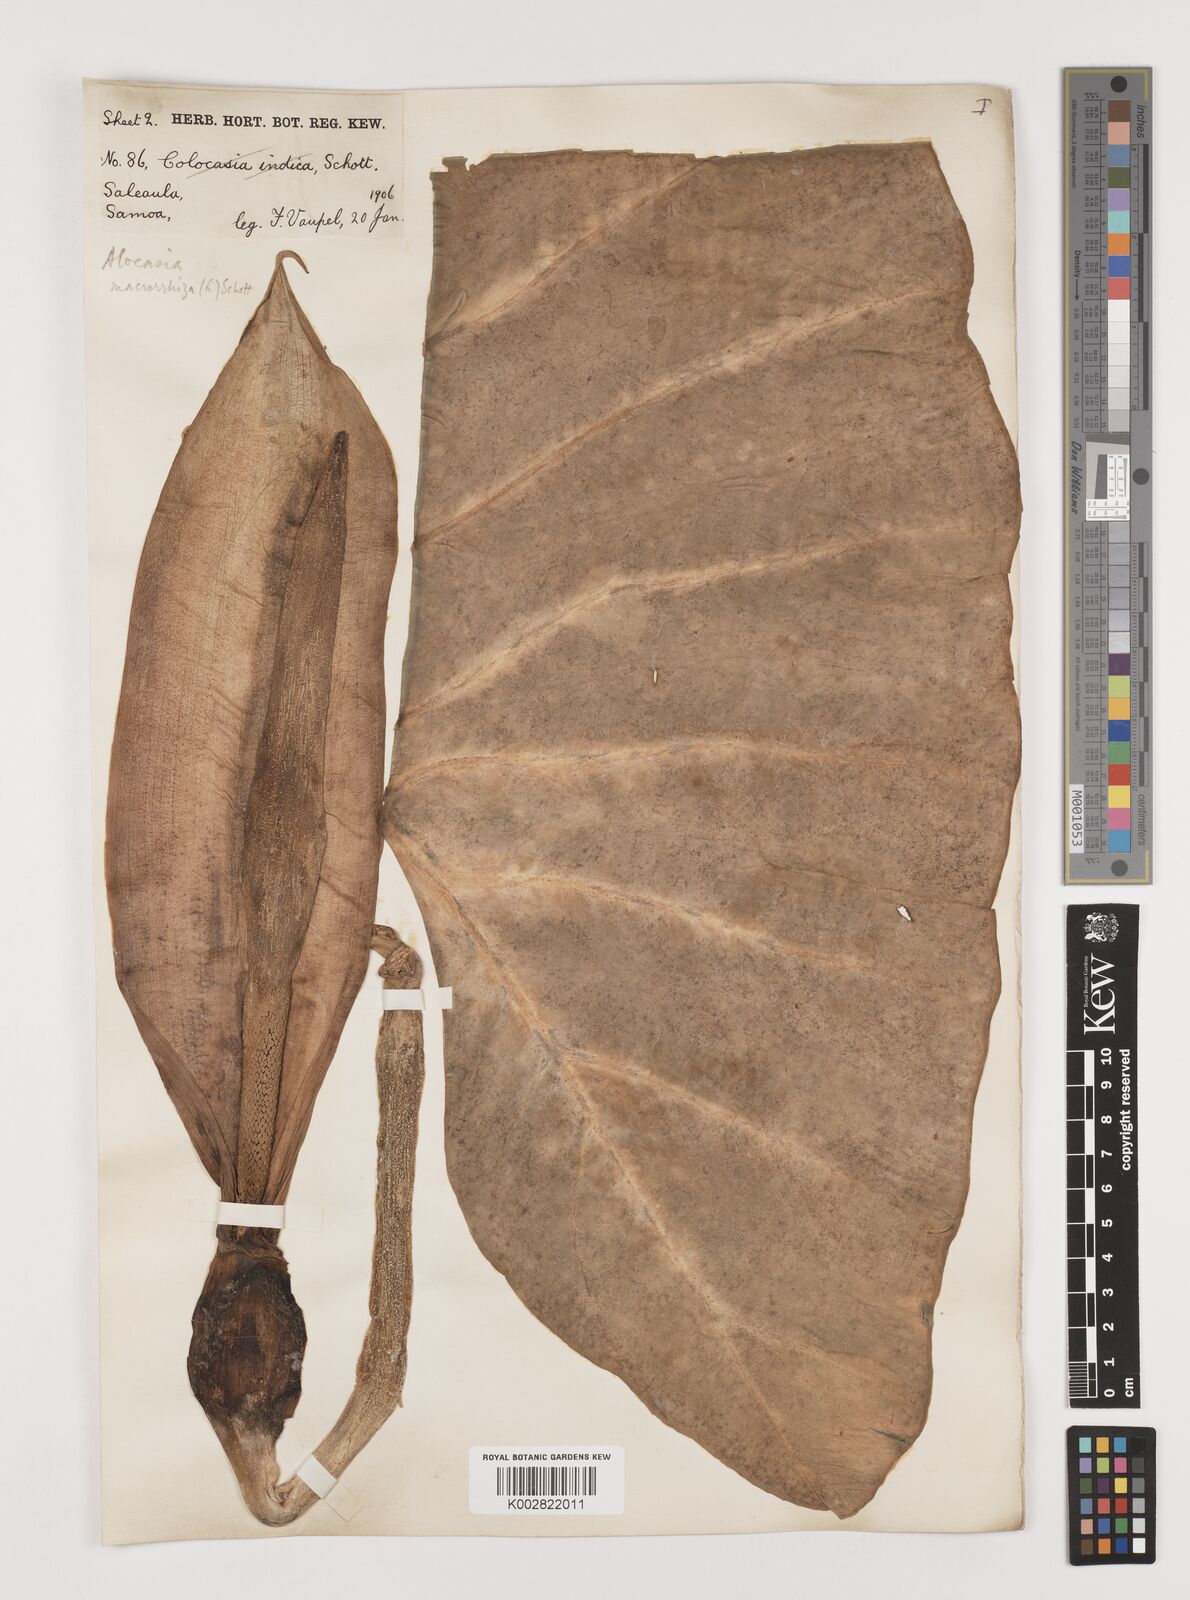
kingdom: Plantae
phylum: Tracheophyta
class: Liliopsida
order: Alismatales
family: Araceae
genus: Alocasia
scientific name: Alocasia macrorrhizos
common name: Giant taro
